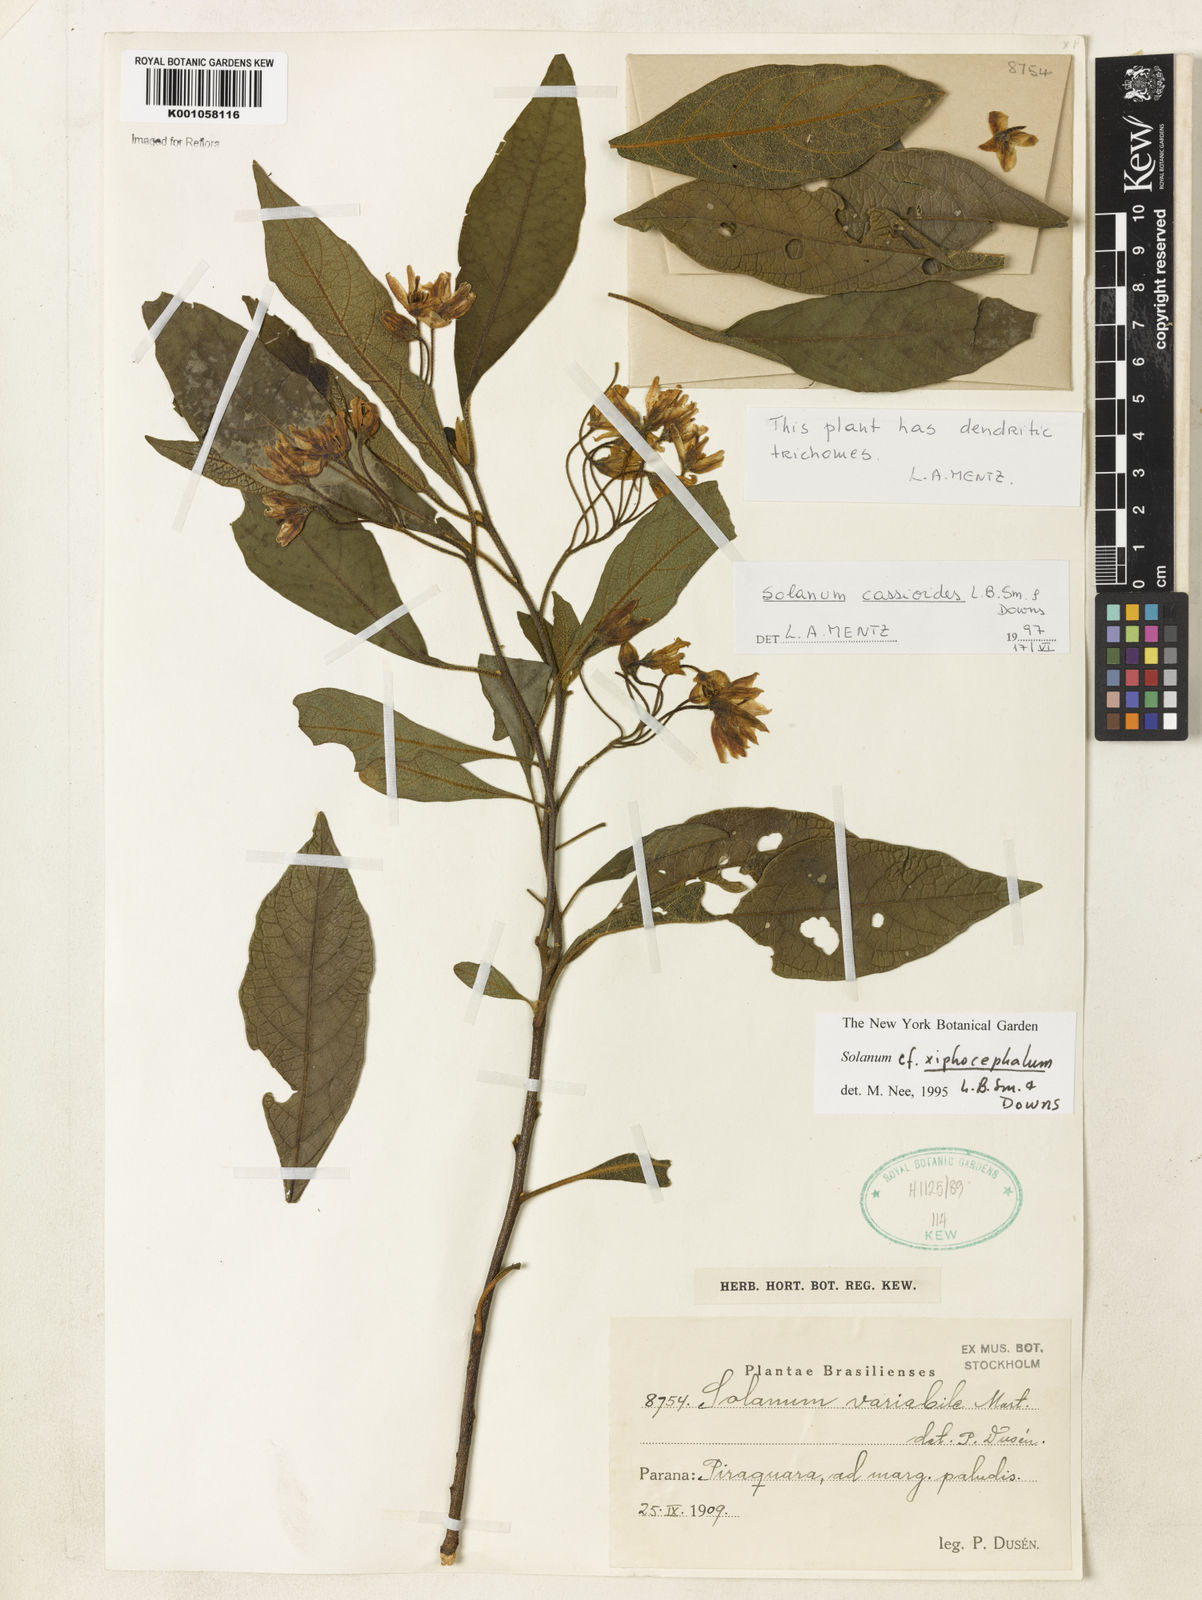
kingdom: Plantae
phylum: Tracheophyta
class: Magnoliopsida
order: Solanales
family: Solanaceae
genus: Solanum
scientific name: Solanum cassioides
